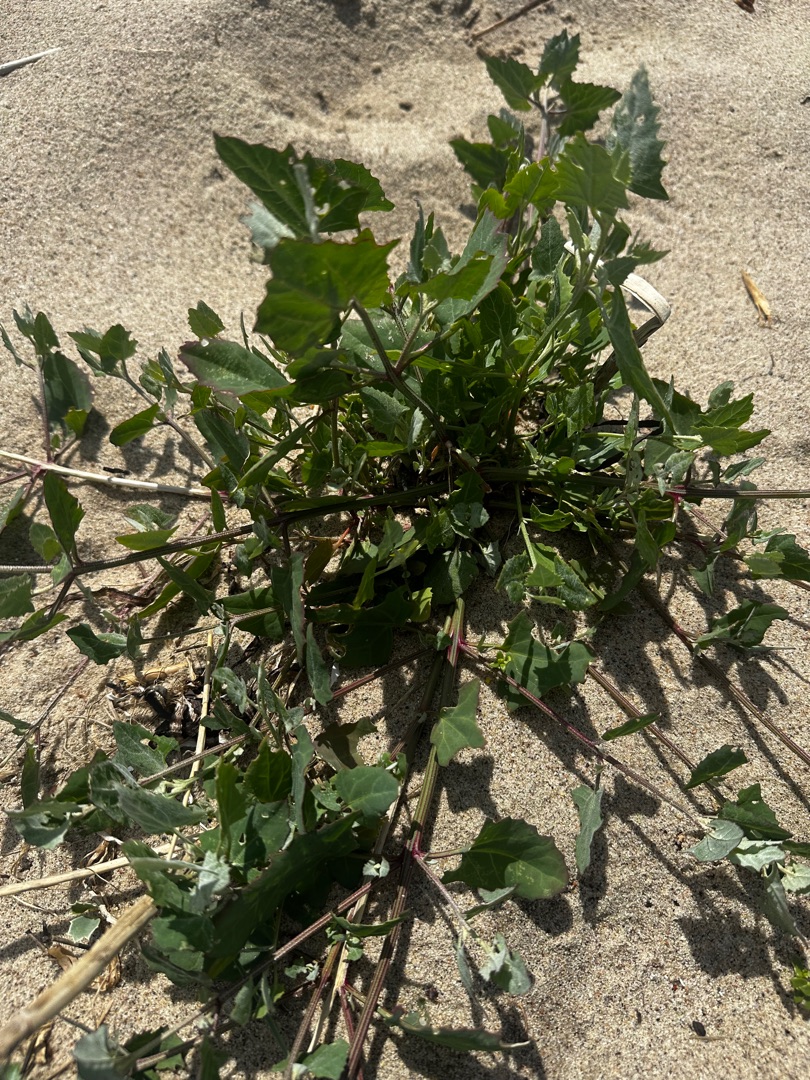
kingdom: Plantae
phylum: Tracheophyta
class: Magnoliopsida
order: Caryophyllales
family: Amaranthaceae
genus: Atriplex
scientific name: Atriplex prostrata
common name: Spyd-mælde
